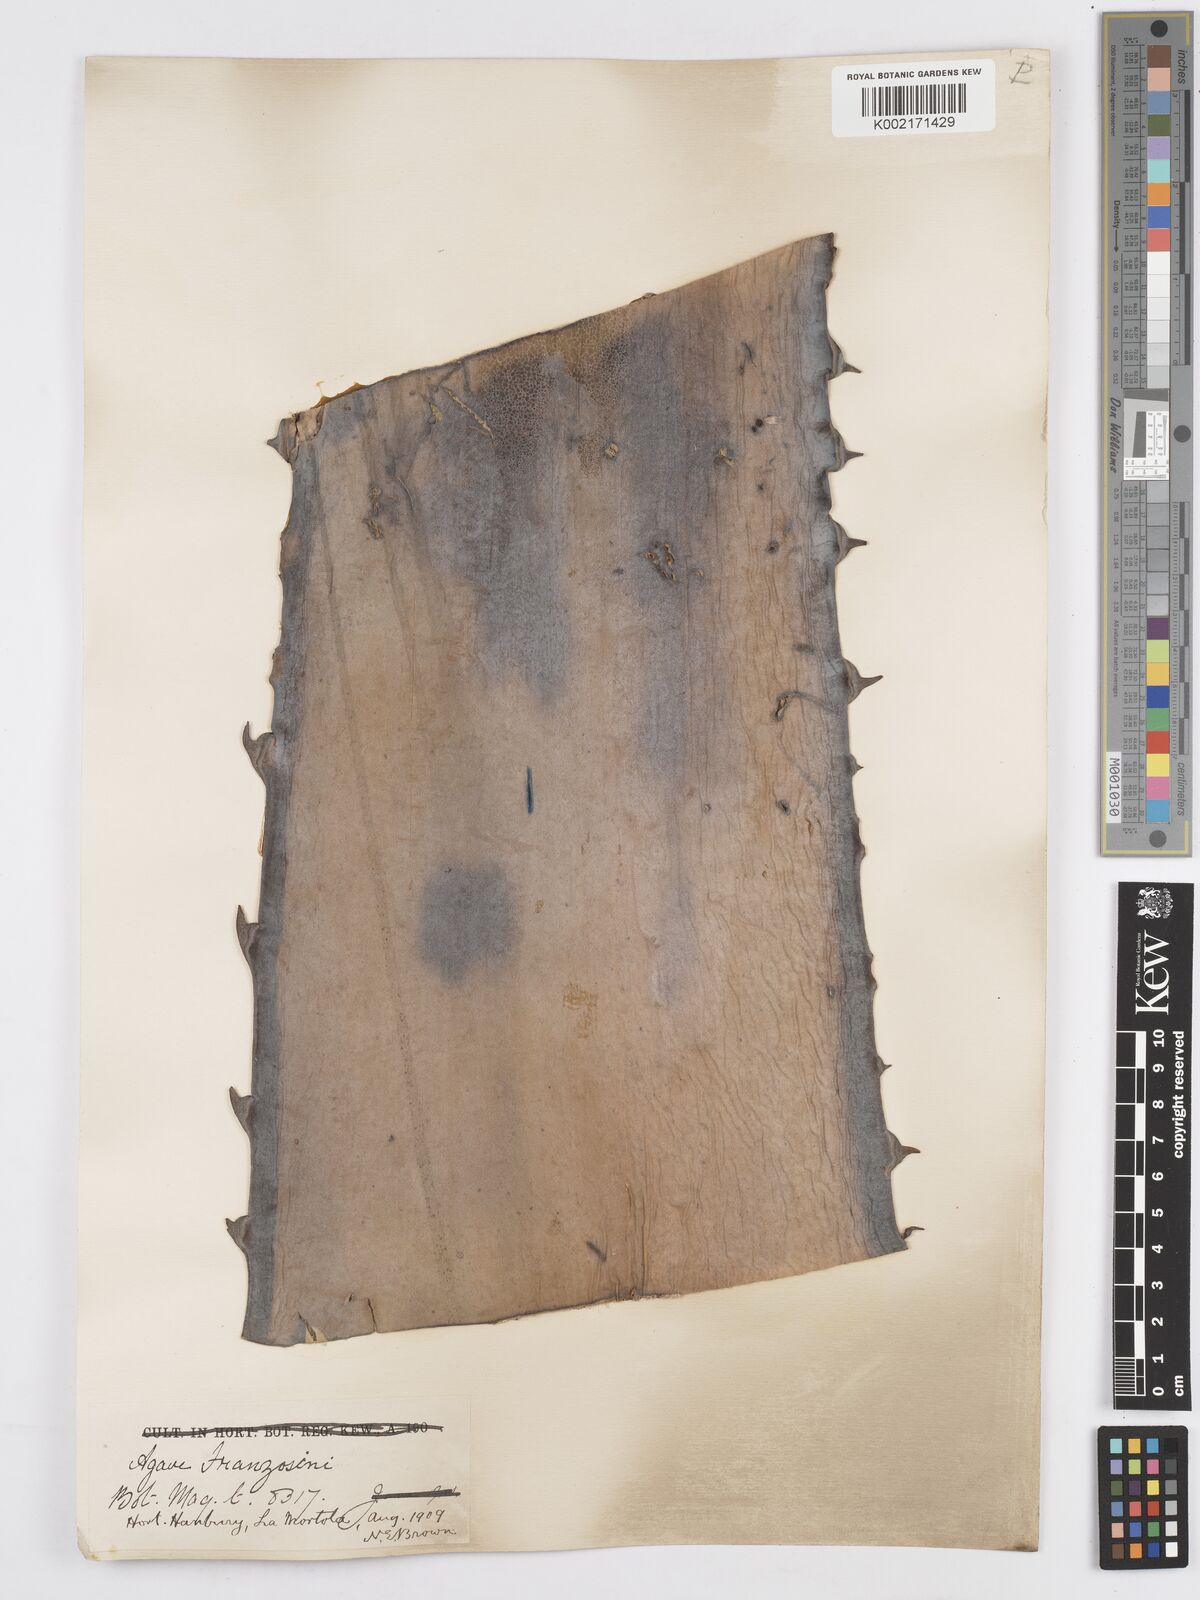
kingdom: Plantae
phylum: Tracheophyta
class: Liliopsida
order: Asparagales
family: Asparagaceae
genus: Agave
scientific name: Agave americana
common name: Centuryplant
